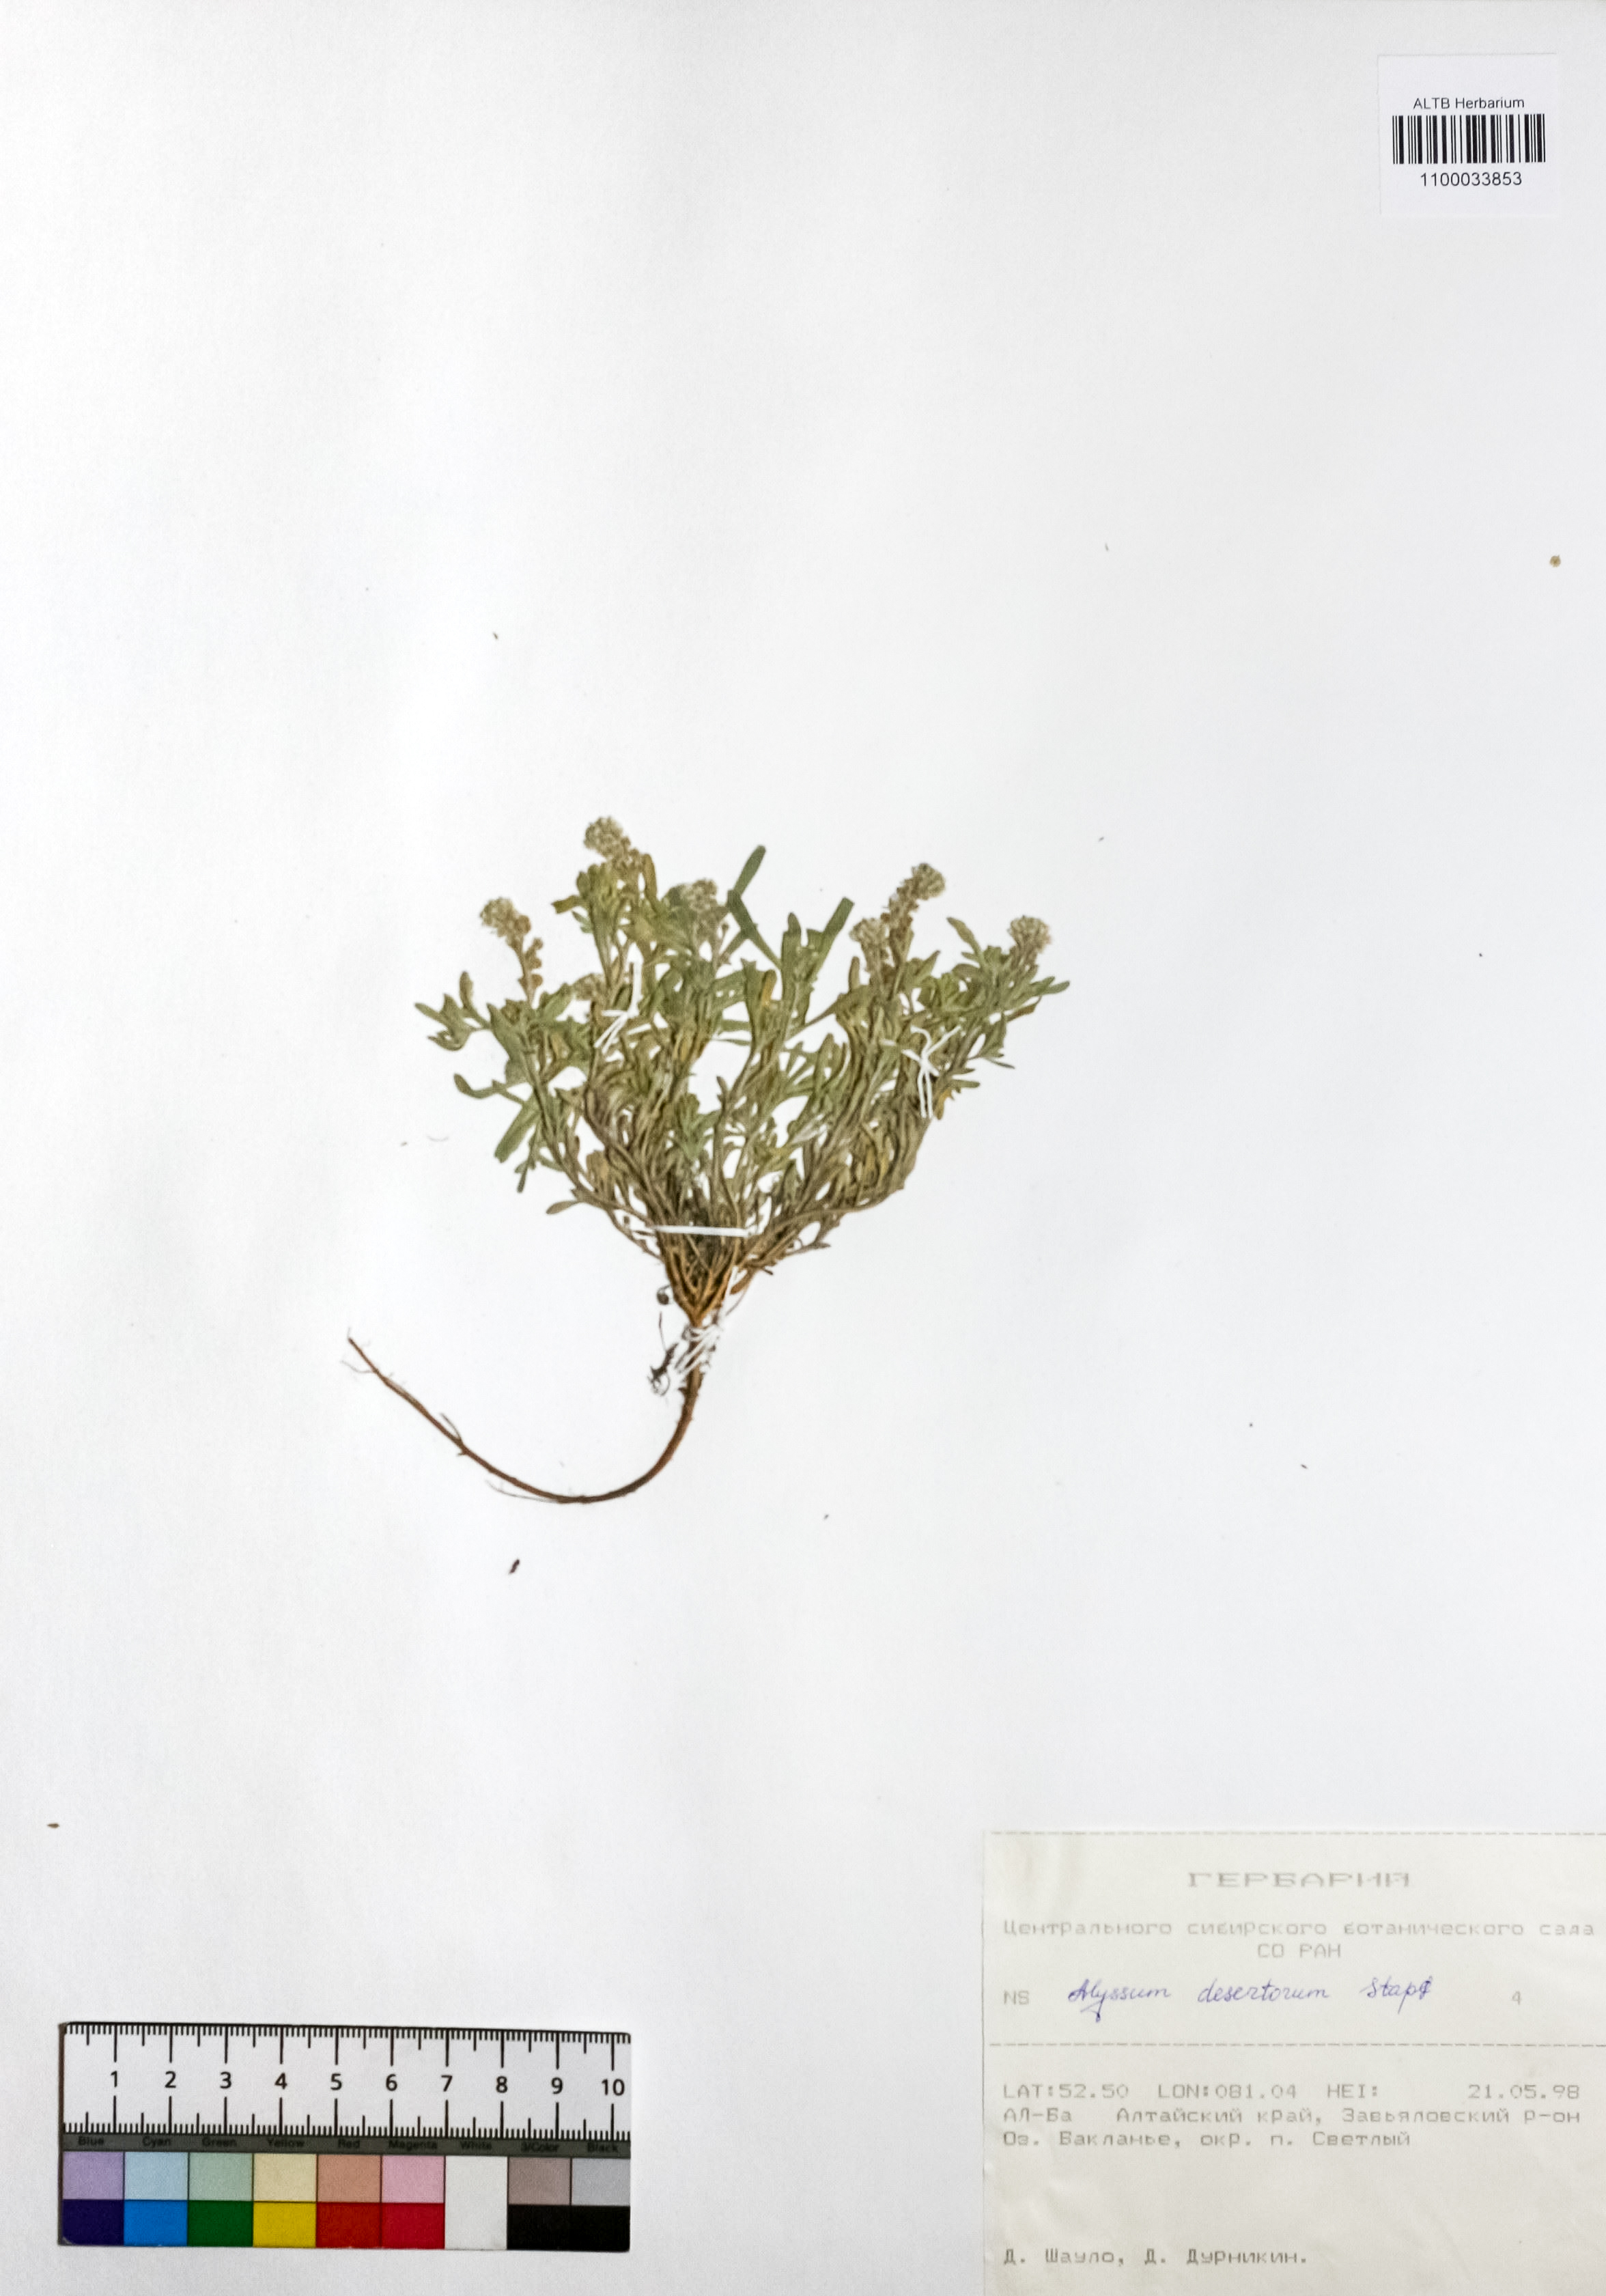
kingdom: Plantae
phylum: Tracheophyta
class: Magnoliopsida
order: Brassicales
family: Brassicaceae
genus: Alyssum
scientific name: Alyssum turkestanicum
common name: Desert alyssum
